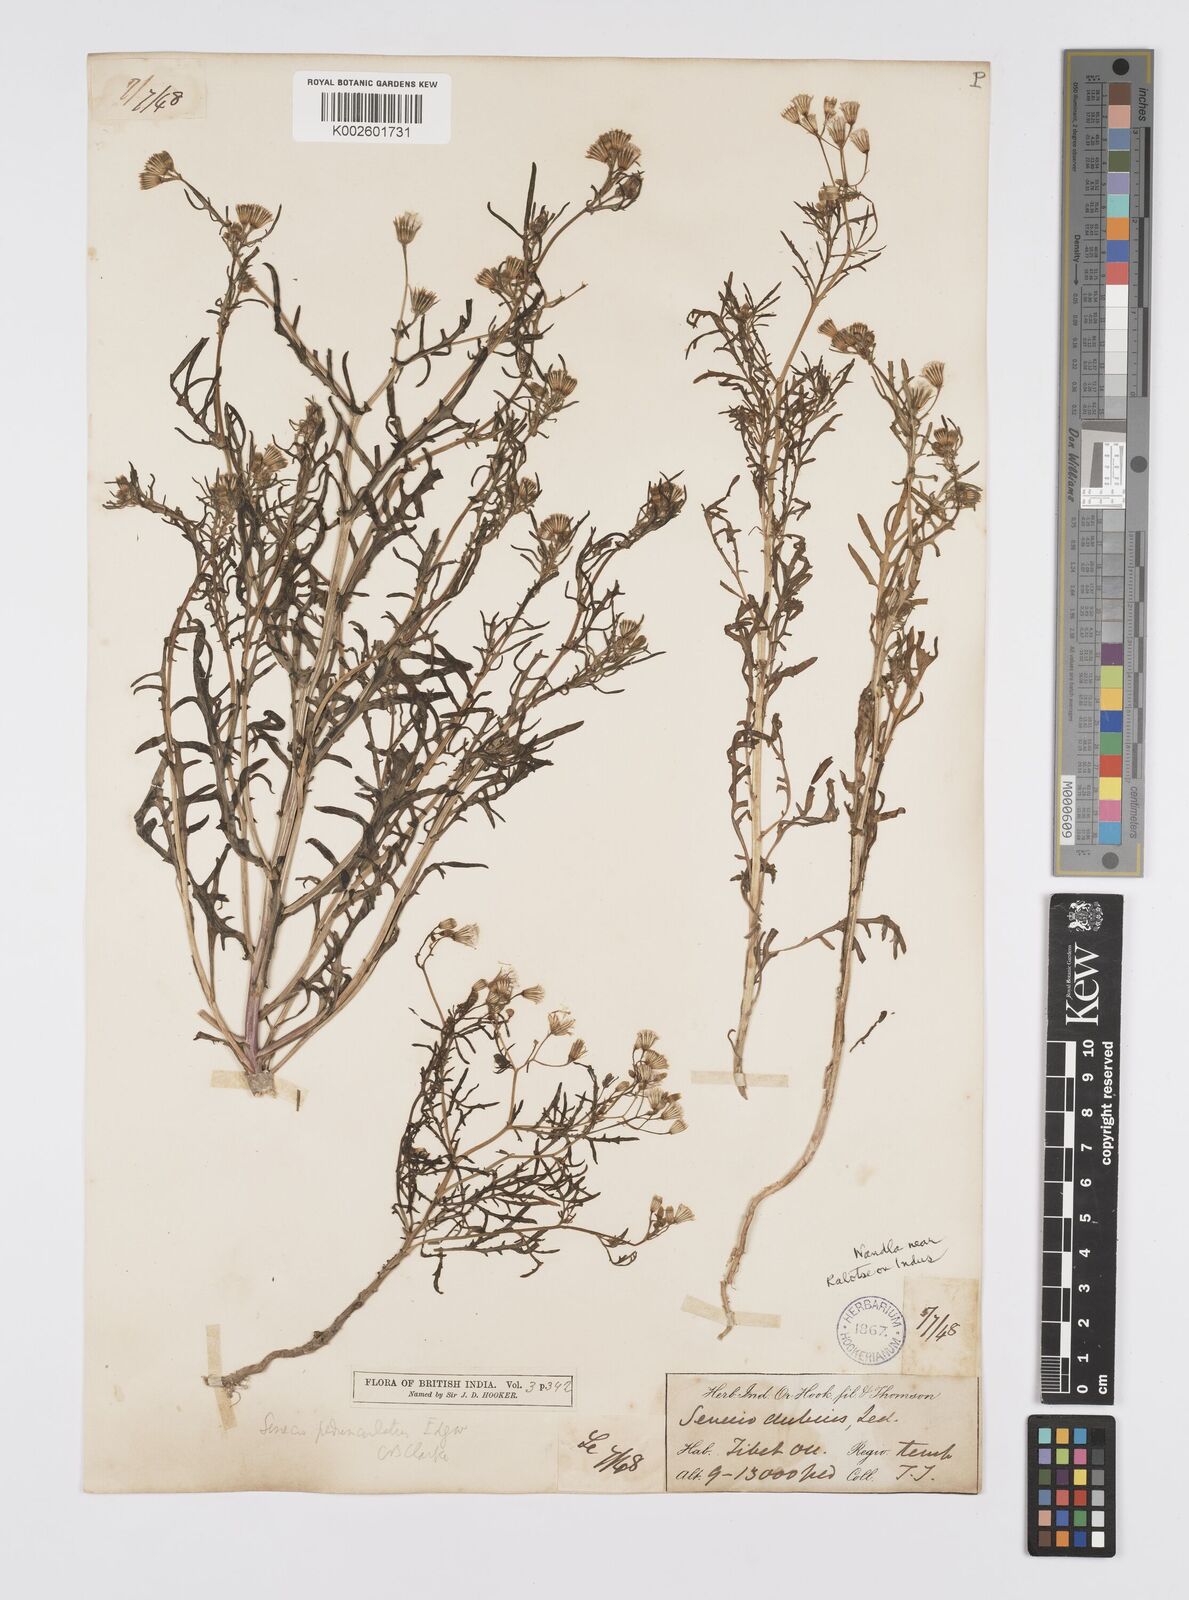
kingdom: Plantae
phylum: Tracheophyta
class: Magnoliopsida
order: Asterales
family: Asteraceae
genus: Senecio
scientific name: Senecio krascheninnikovii
